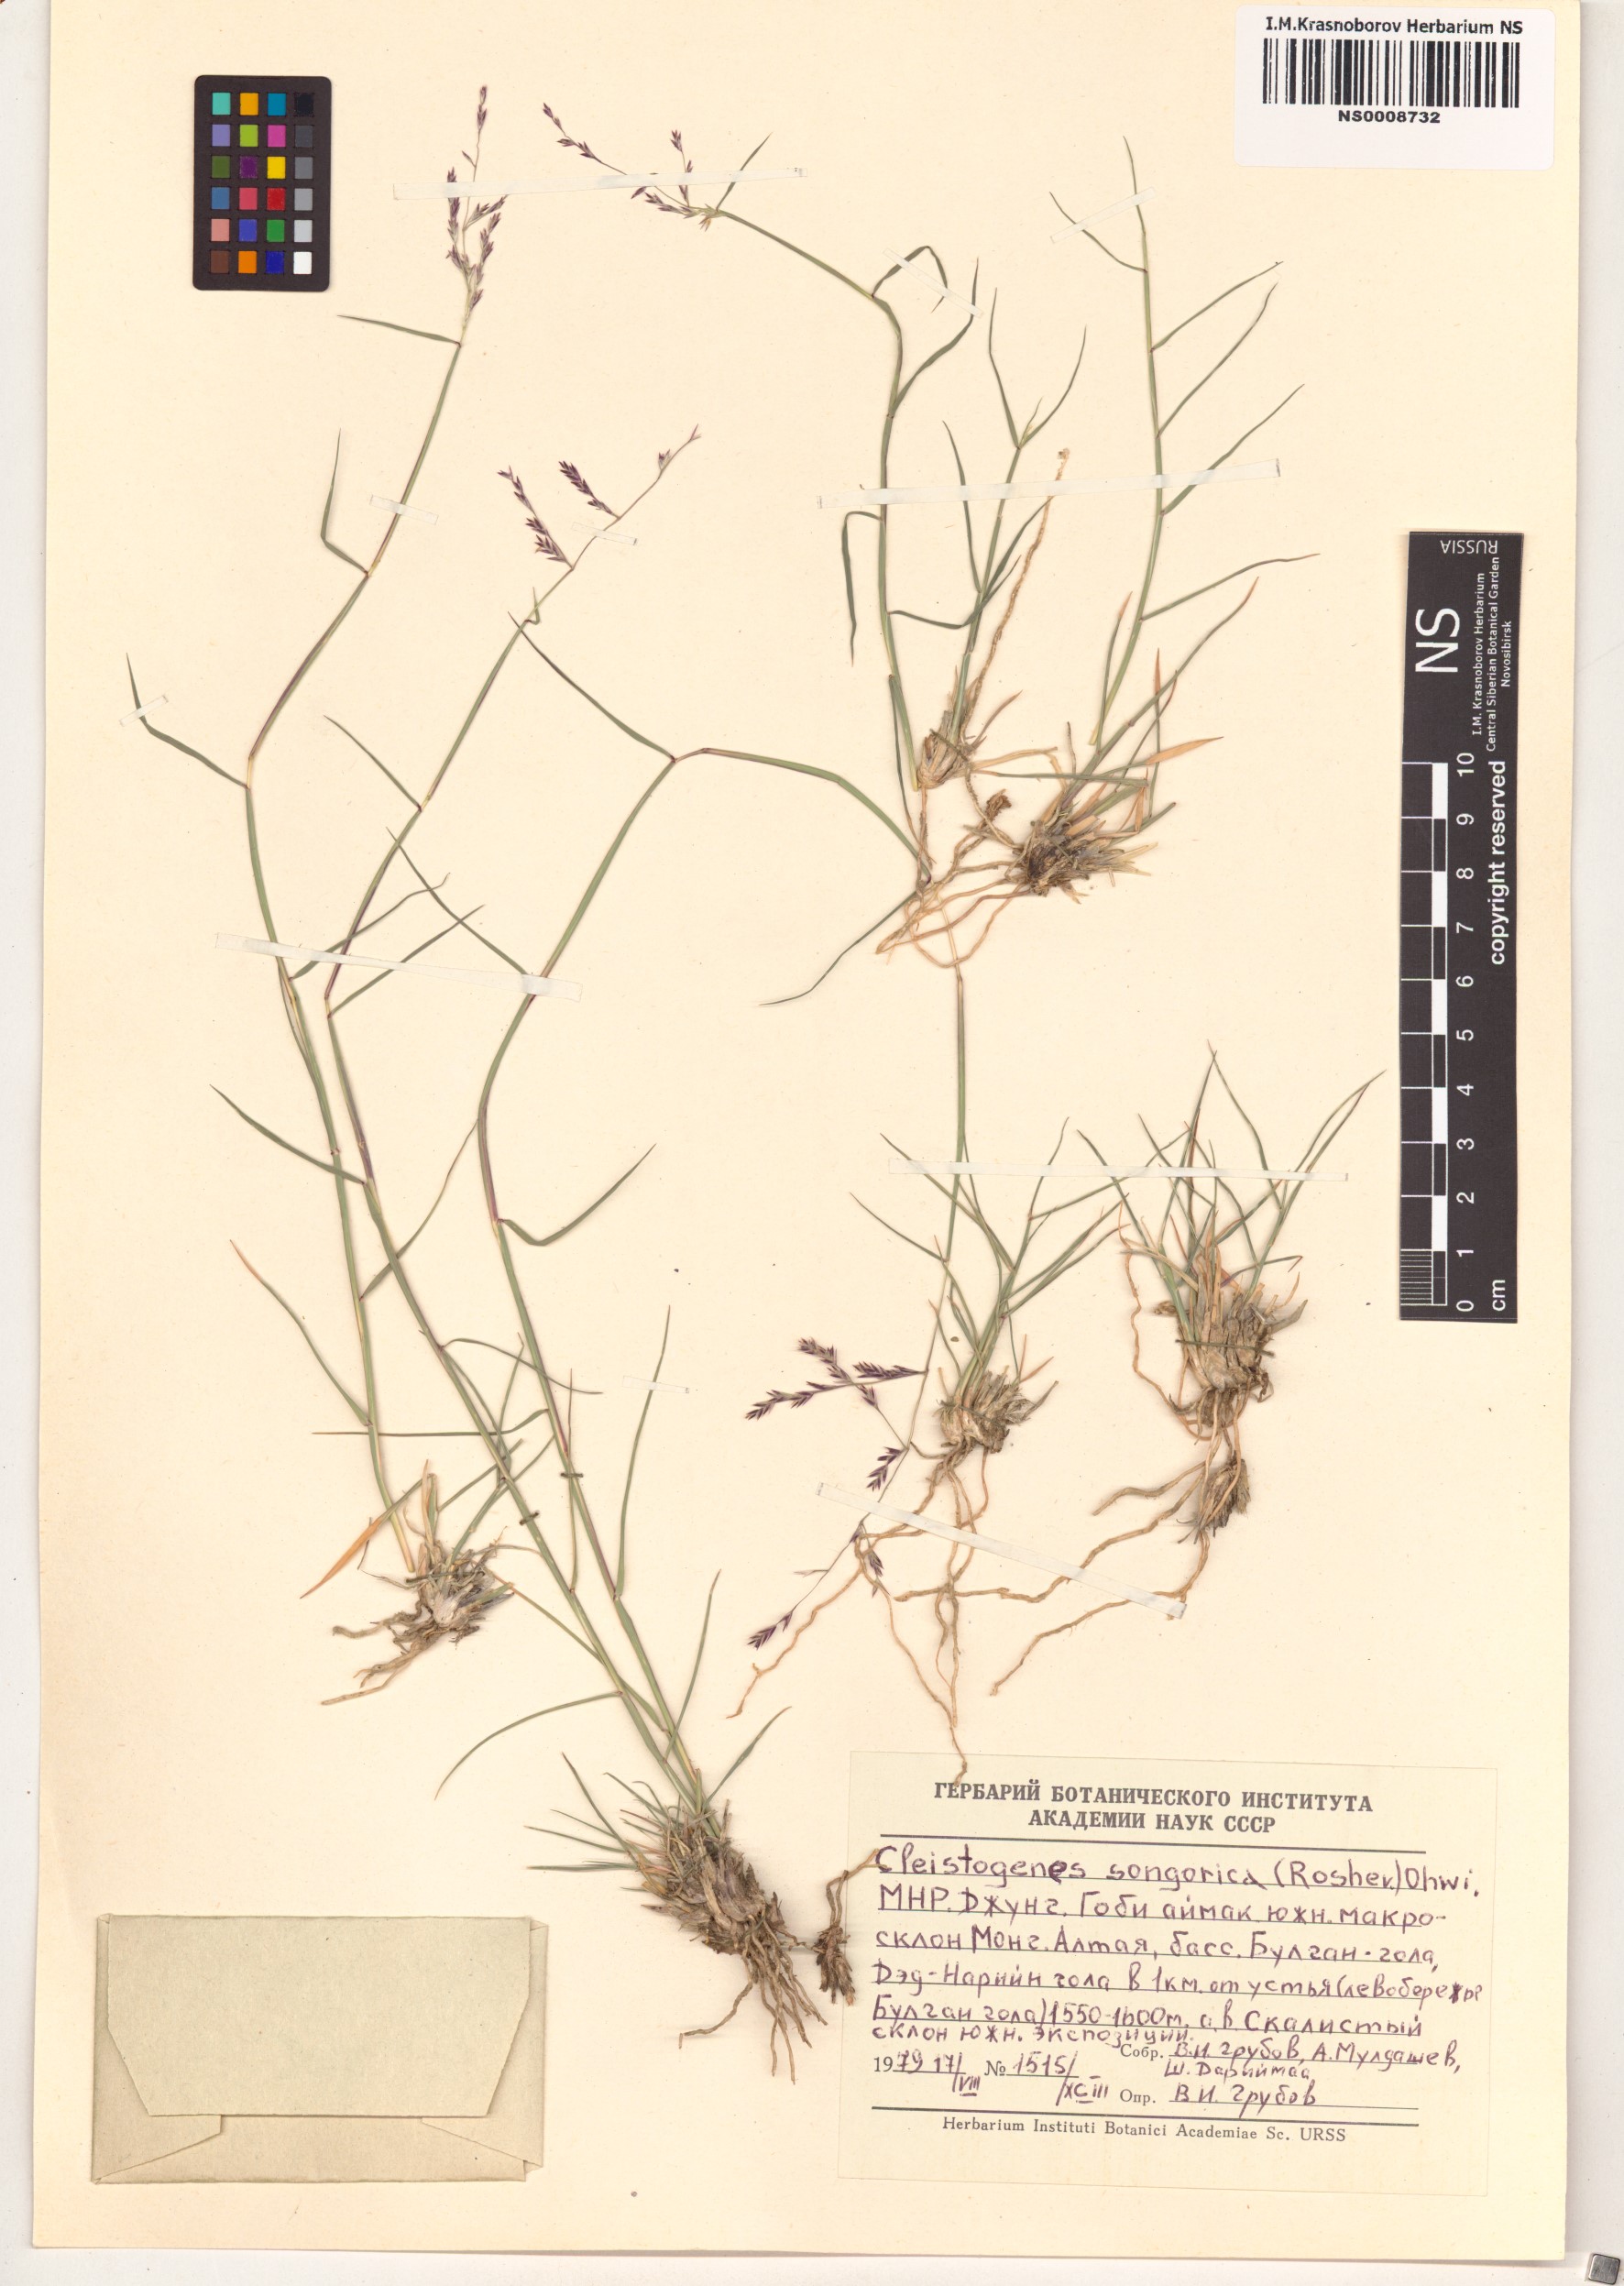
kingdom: Plantae
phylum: Tracheophyta
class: Liliopsida
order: Poales
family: Poaceae
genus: Cleistogenes
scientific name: Cleistogenes songorica
